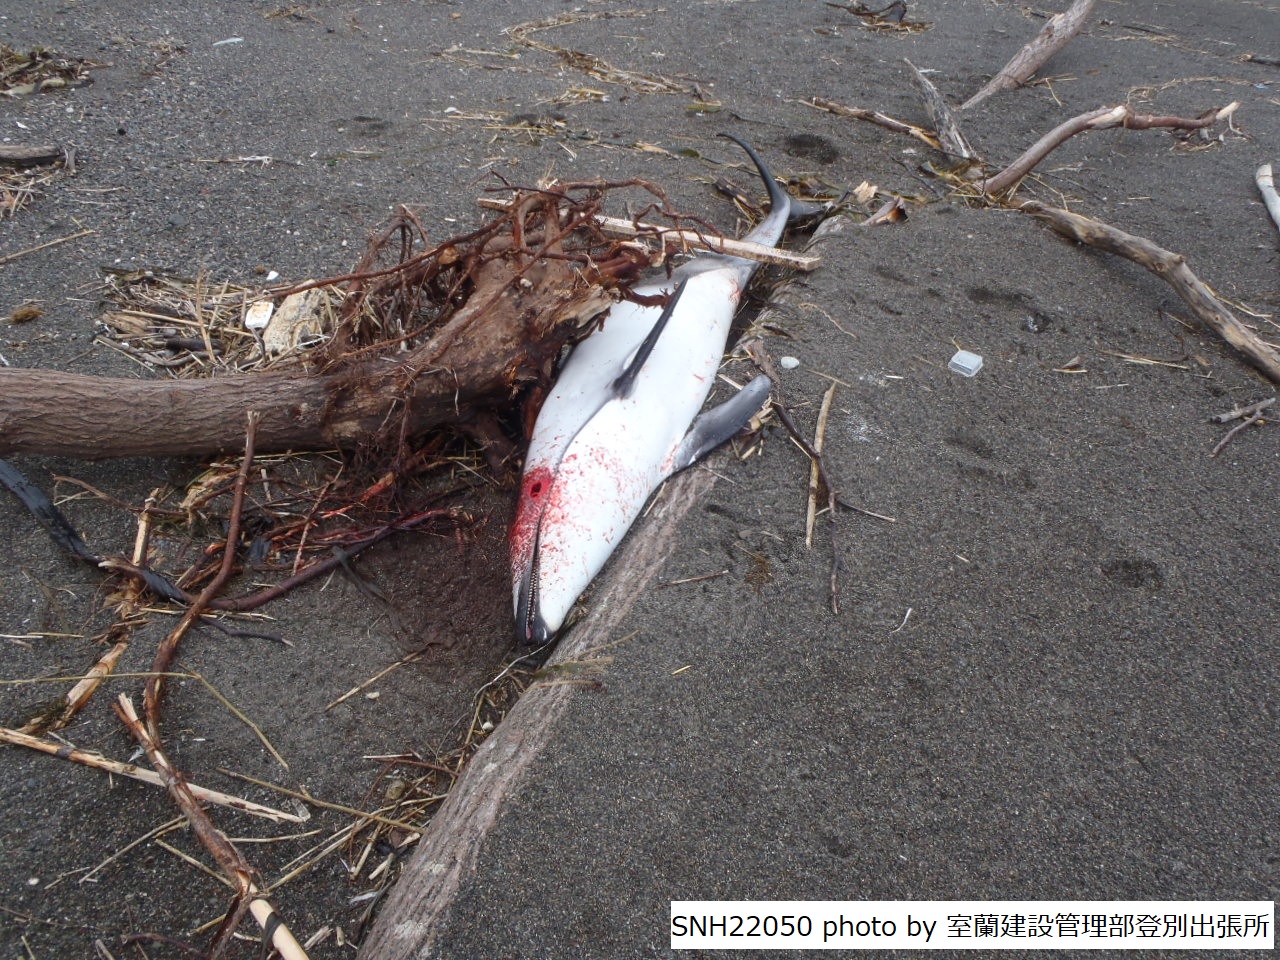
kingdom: Animalia
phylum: Chordata
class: Mammalia
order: Cetacea
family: Delphinidae
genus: Lagenorhynchus
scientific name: Lagenorhynchus obliquidens
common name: Pacific white-sided dolphin
